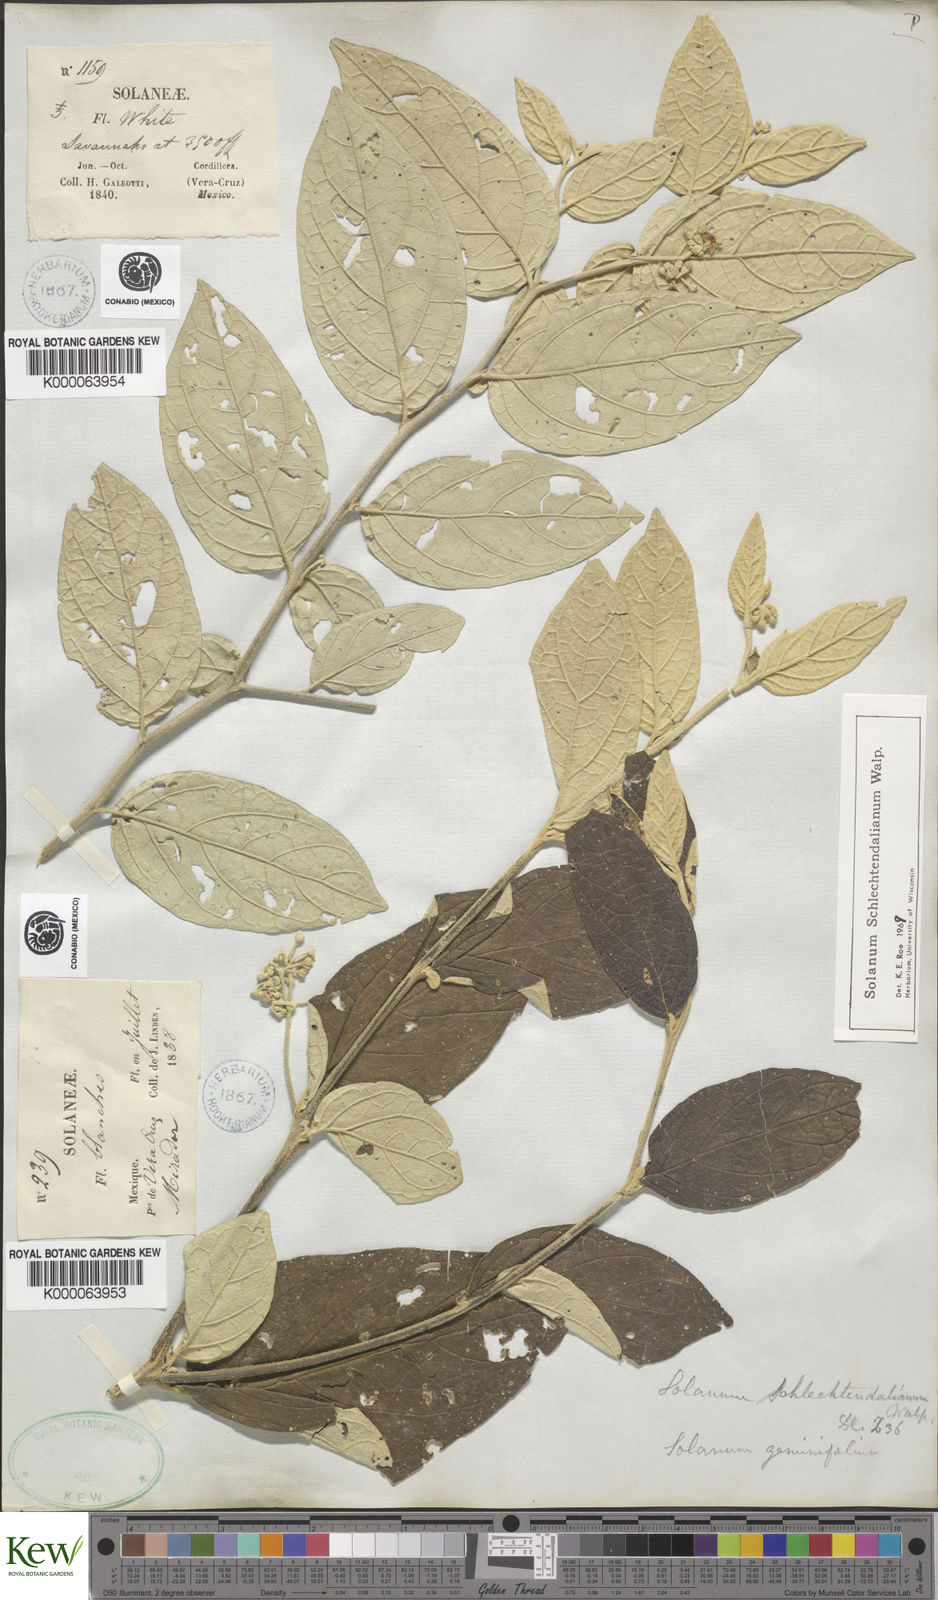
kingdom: Plantae
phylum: Tracheophyta
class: Magnoliopsida
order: Solanales
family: Solanaceae
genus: Solanum
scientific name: Solanum schlechtendalianum
